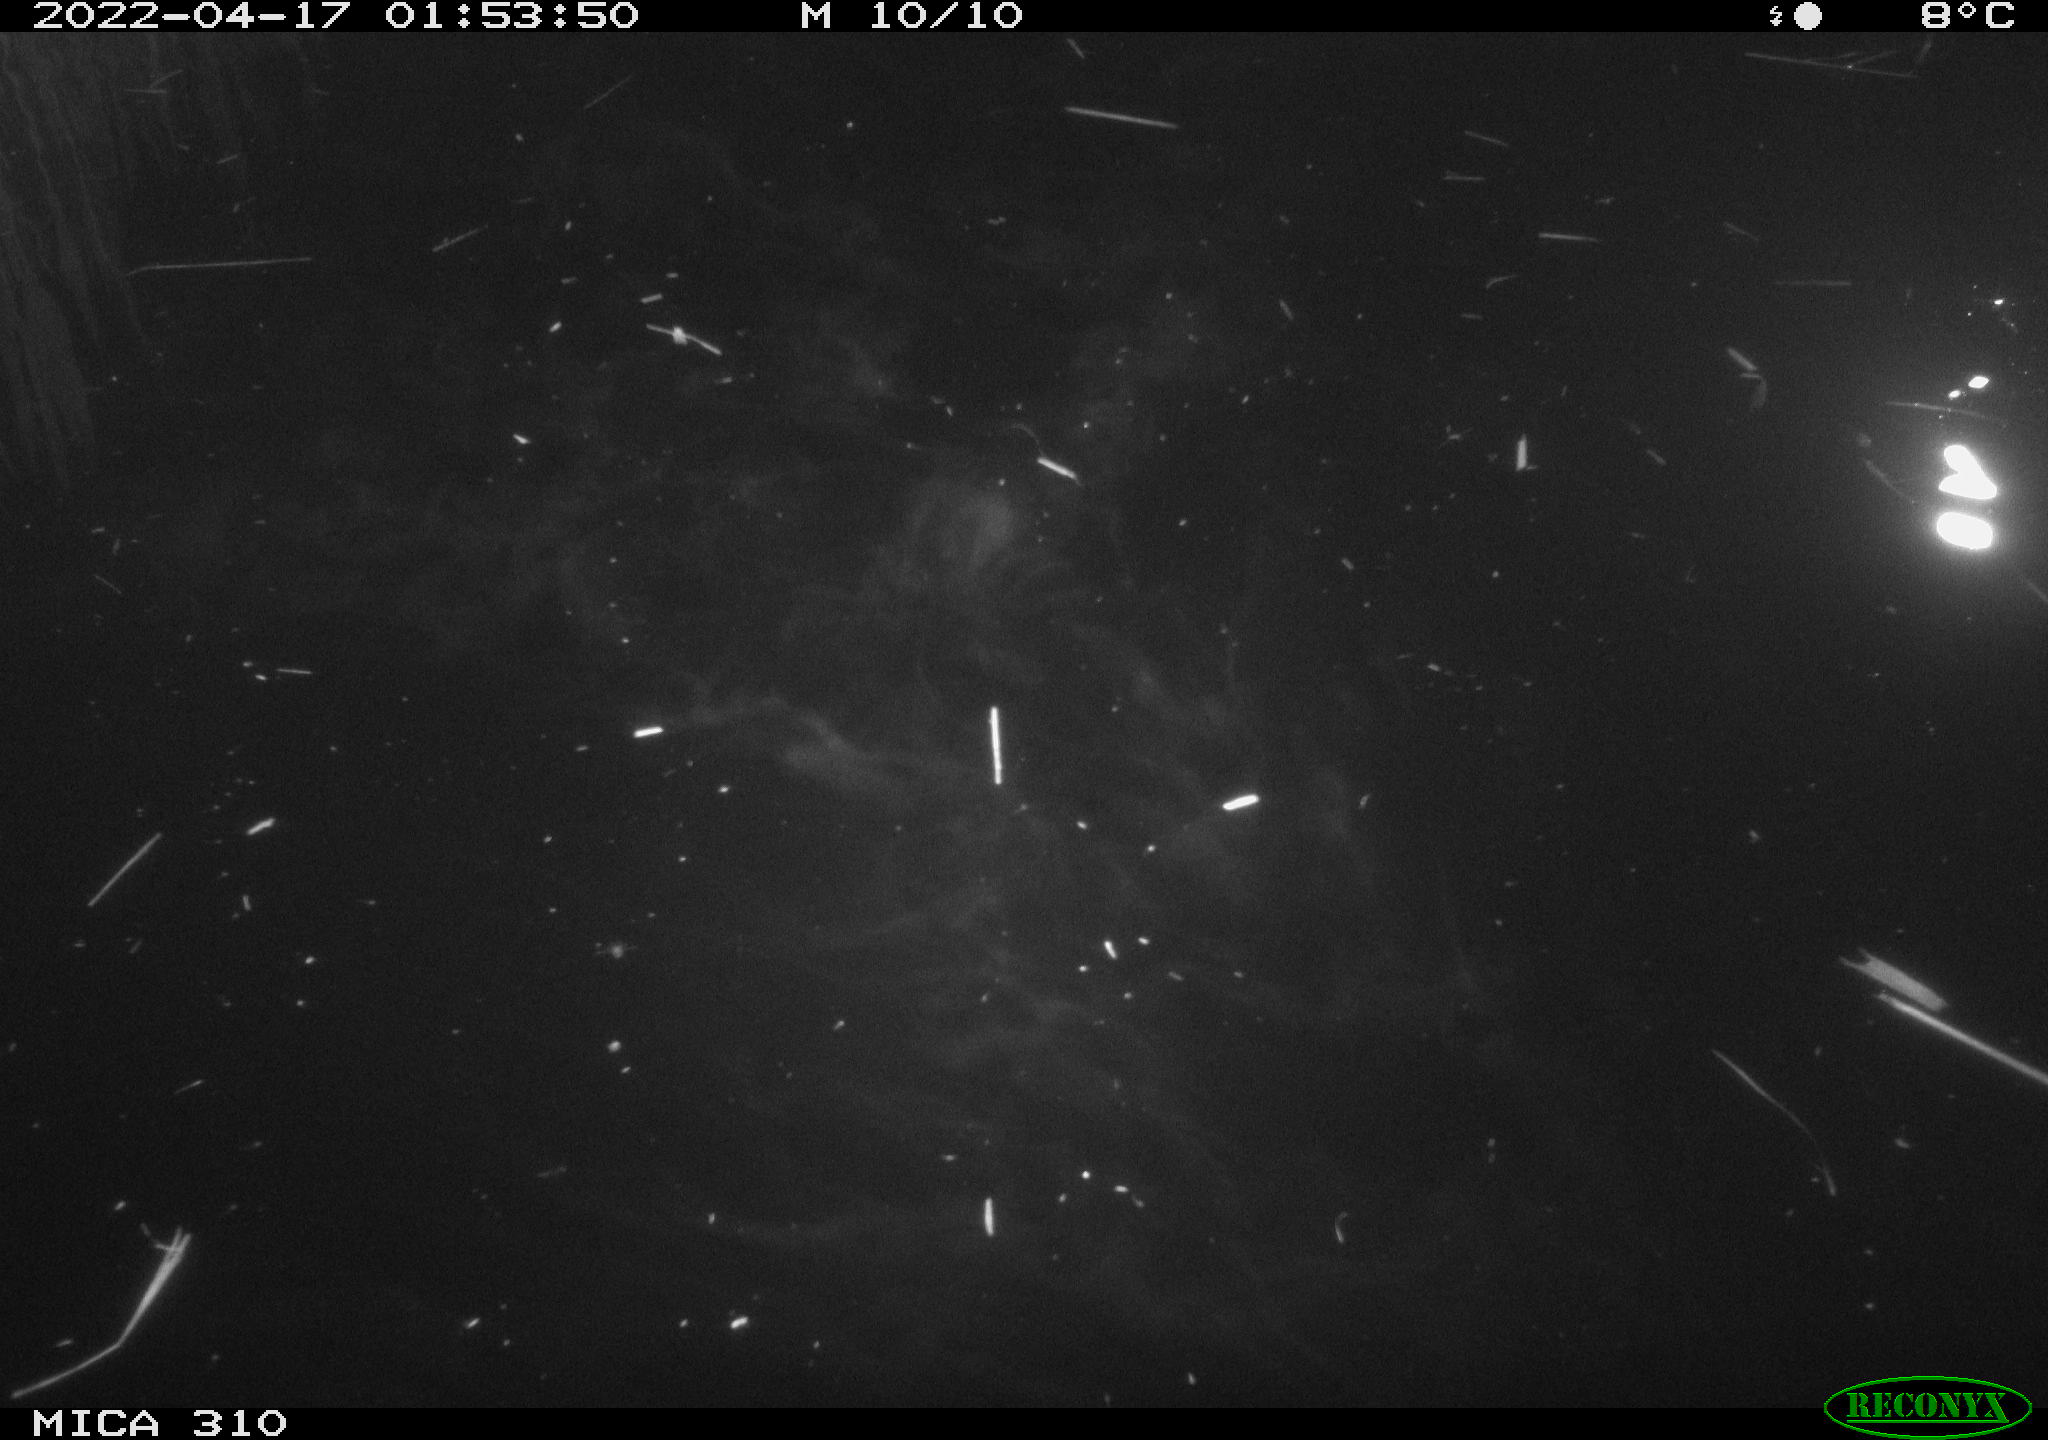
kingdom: Animalia
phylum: Chordata
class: Aves
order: Anseriformes
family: Anatidae
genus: Anas
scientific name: Anas platyrhynchos
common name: Mallard
